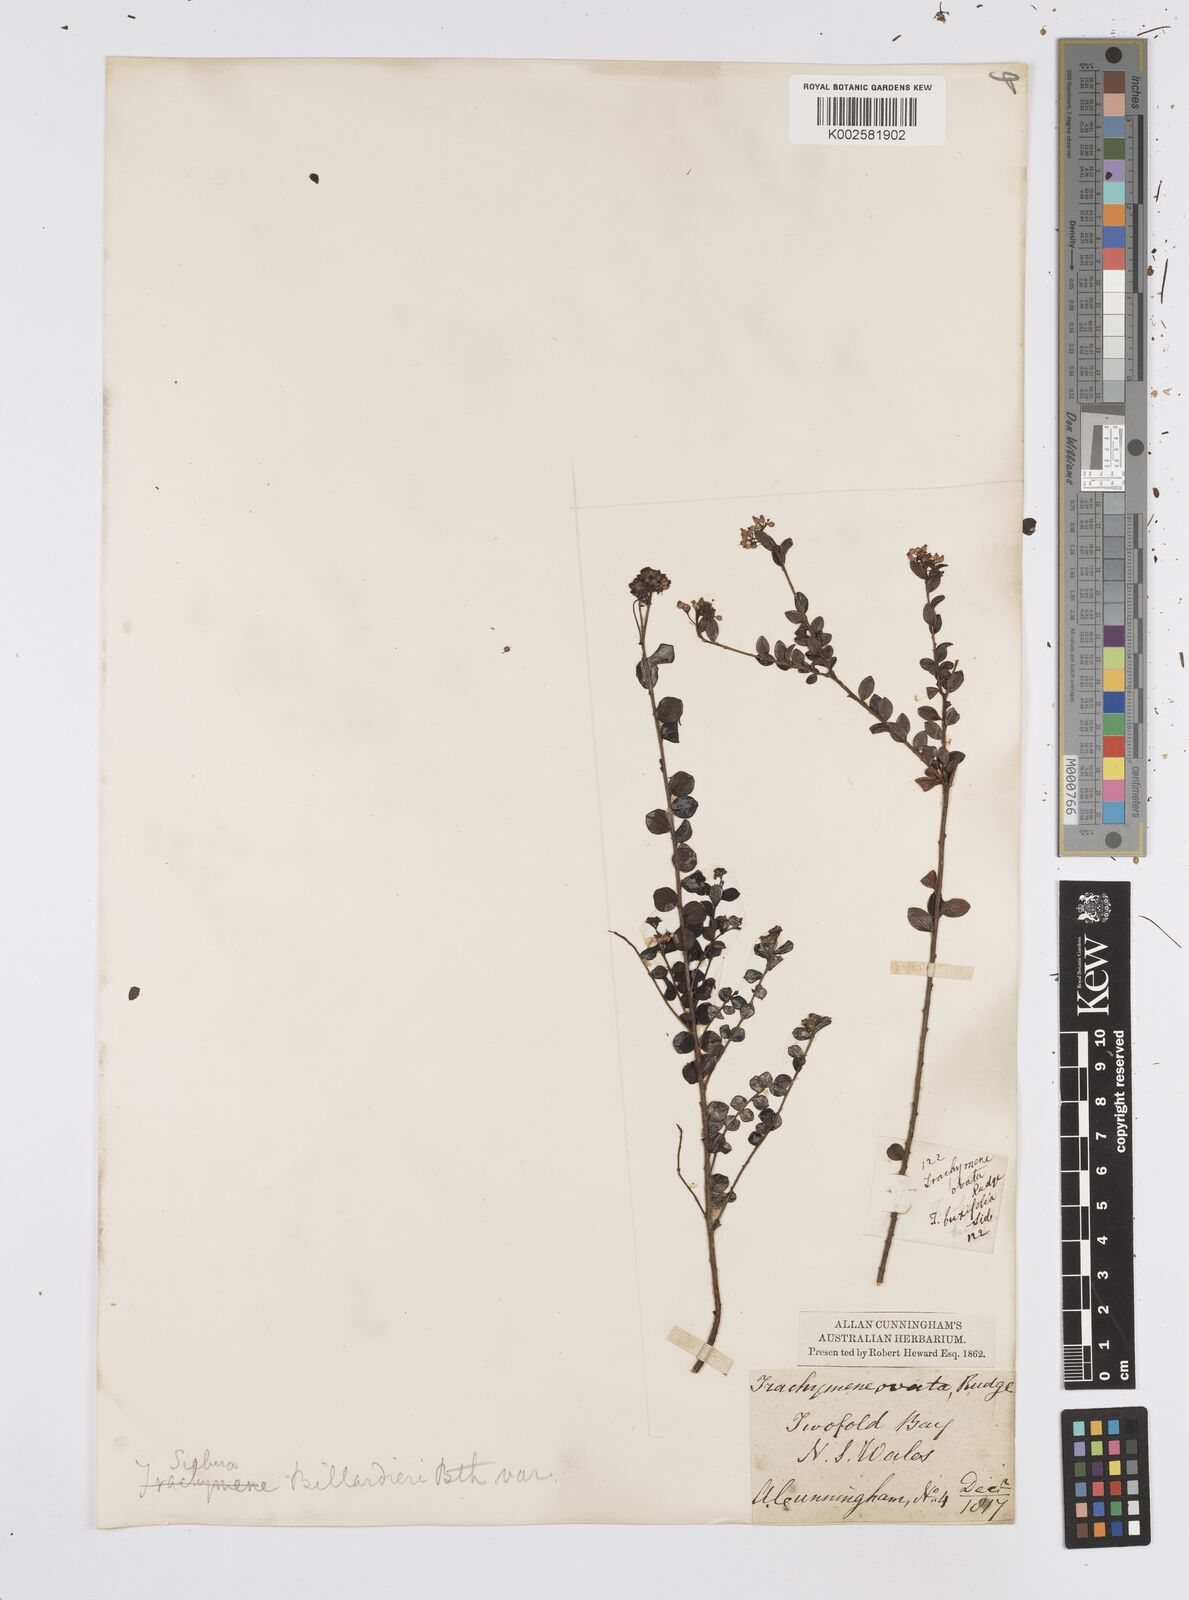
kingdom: Plantae
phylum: Tracheophyta
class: Magnoliopsida
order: Apiales
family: Apiaceae
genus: Platysace
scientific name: Platysace lanceolata
